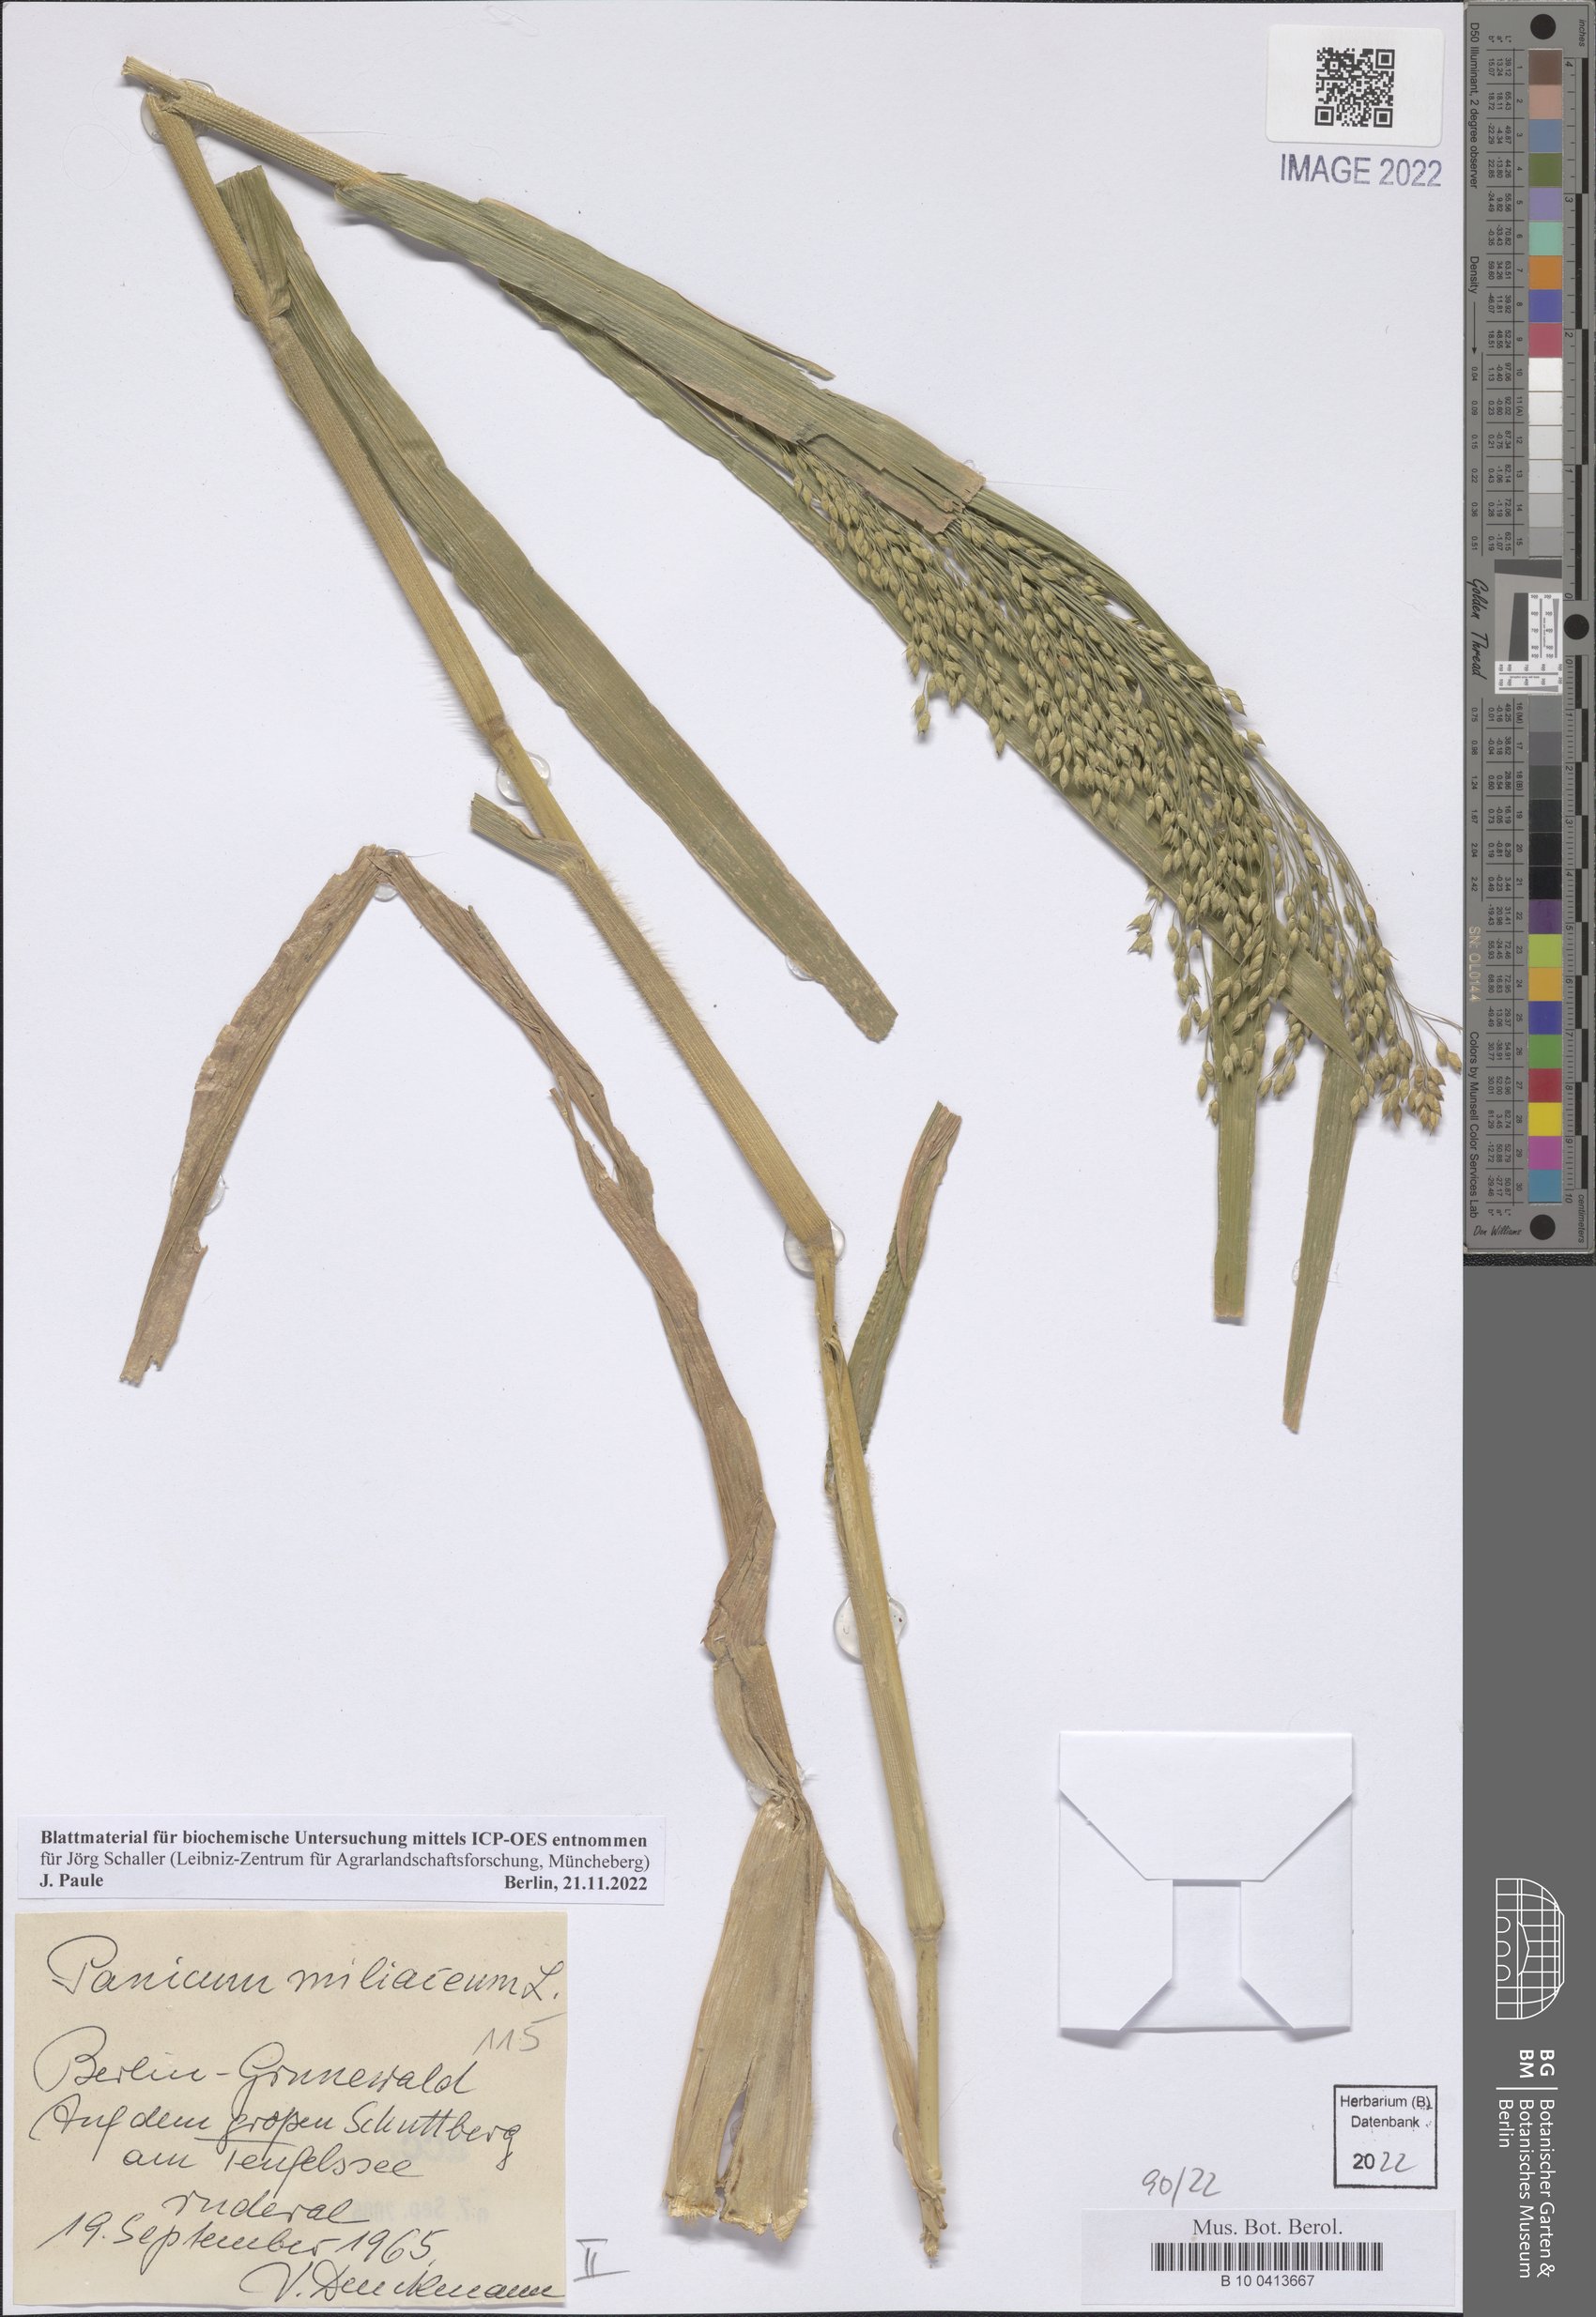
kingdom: Plantae
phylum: Tracheophyta
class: Liliopsida
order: Poales
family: Poaceae
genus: Panicum
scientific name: Panicum miliaceum
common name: Common millet
